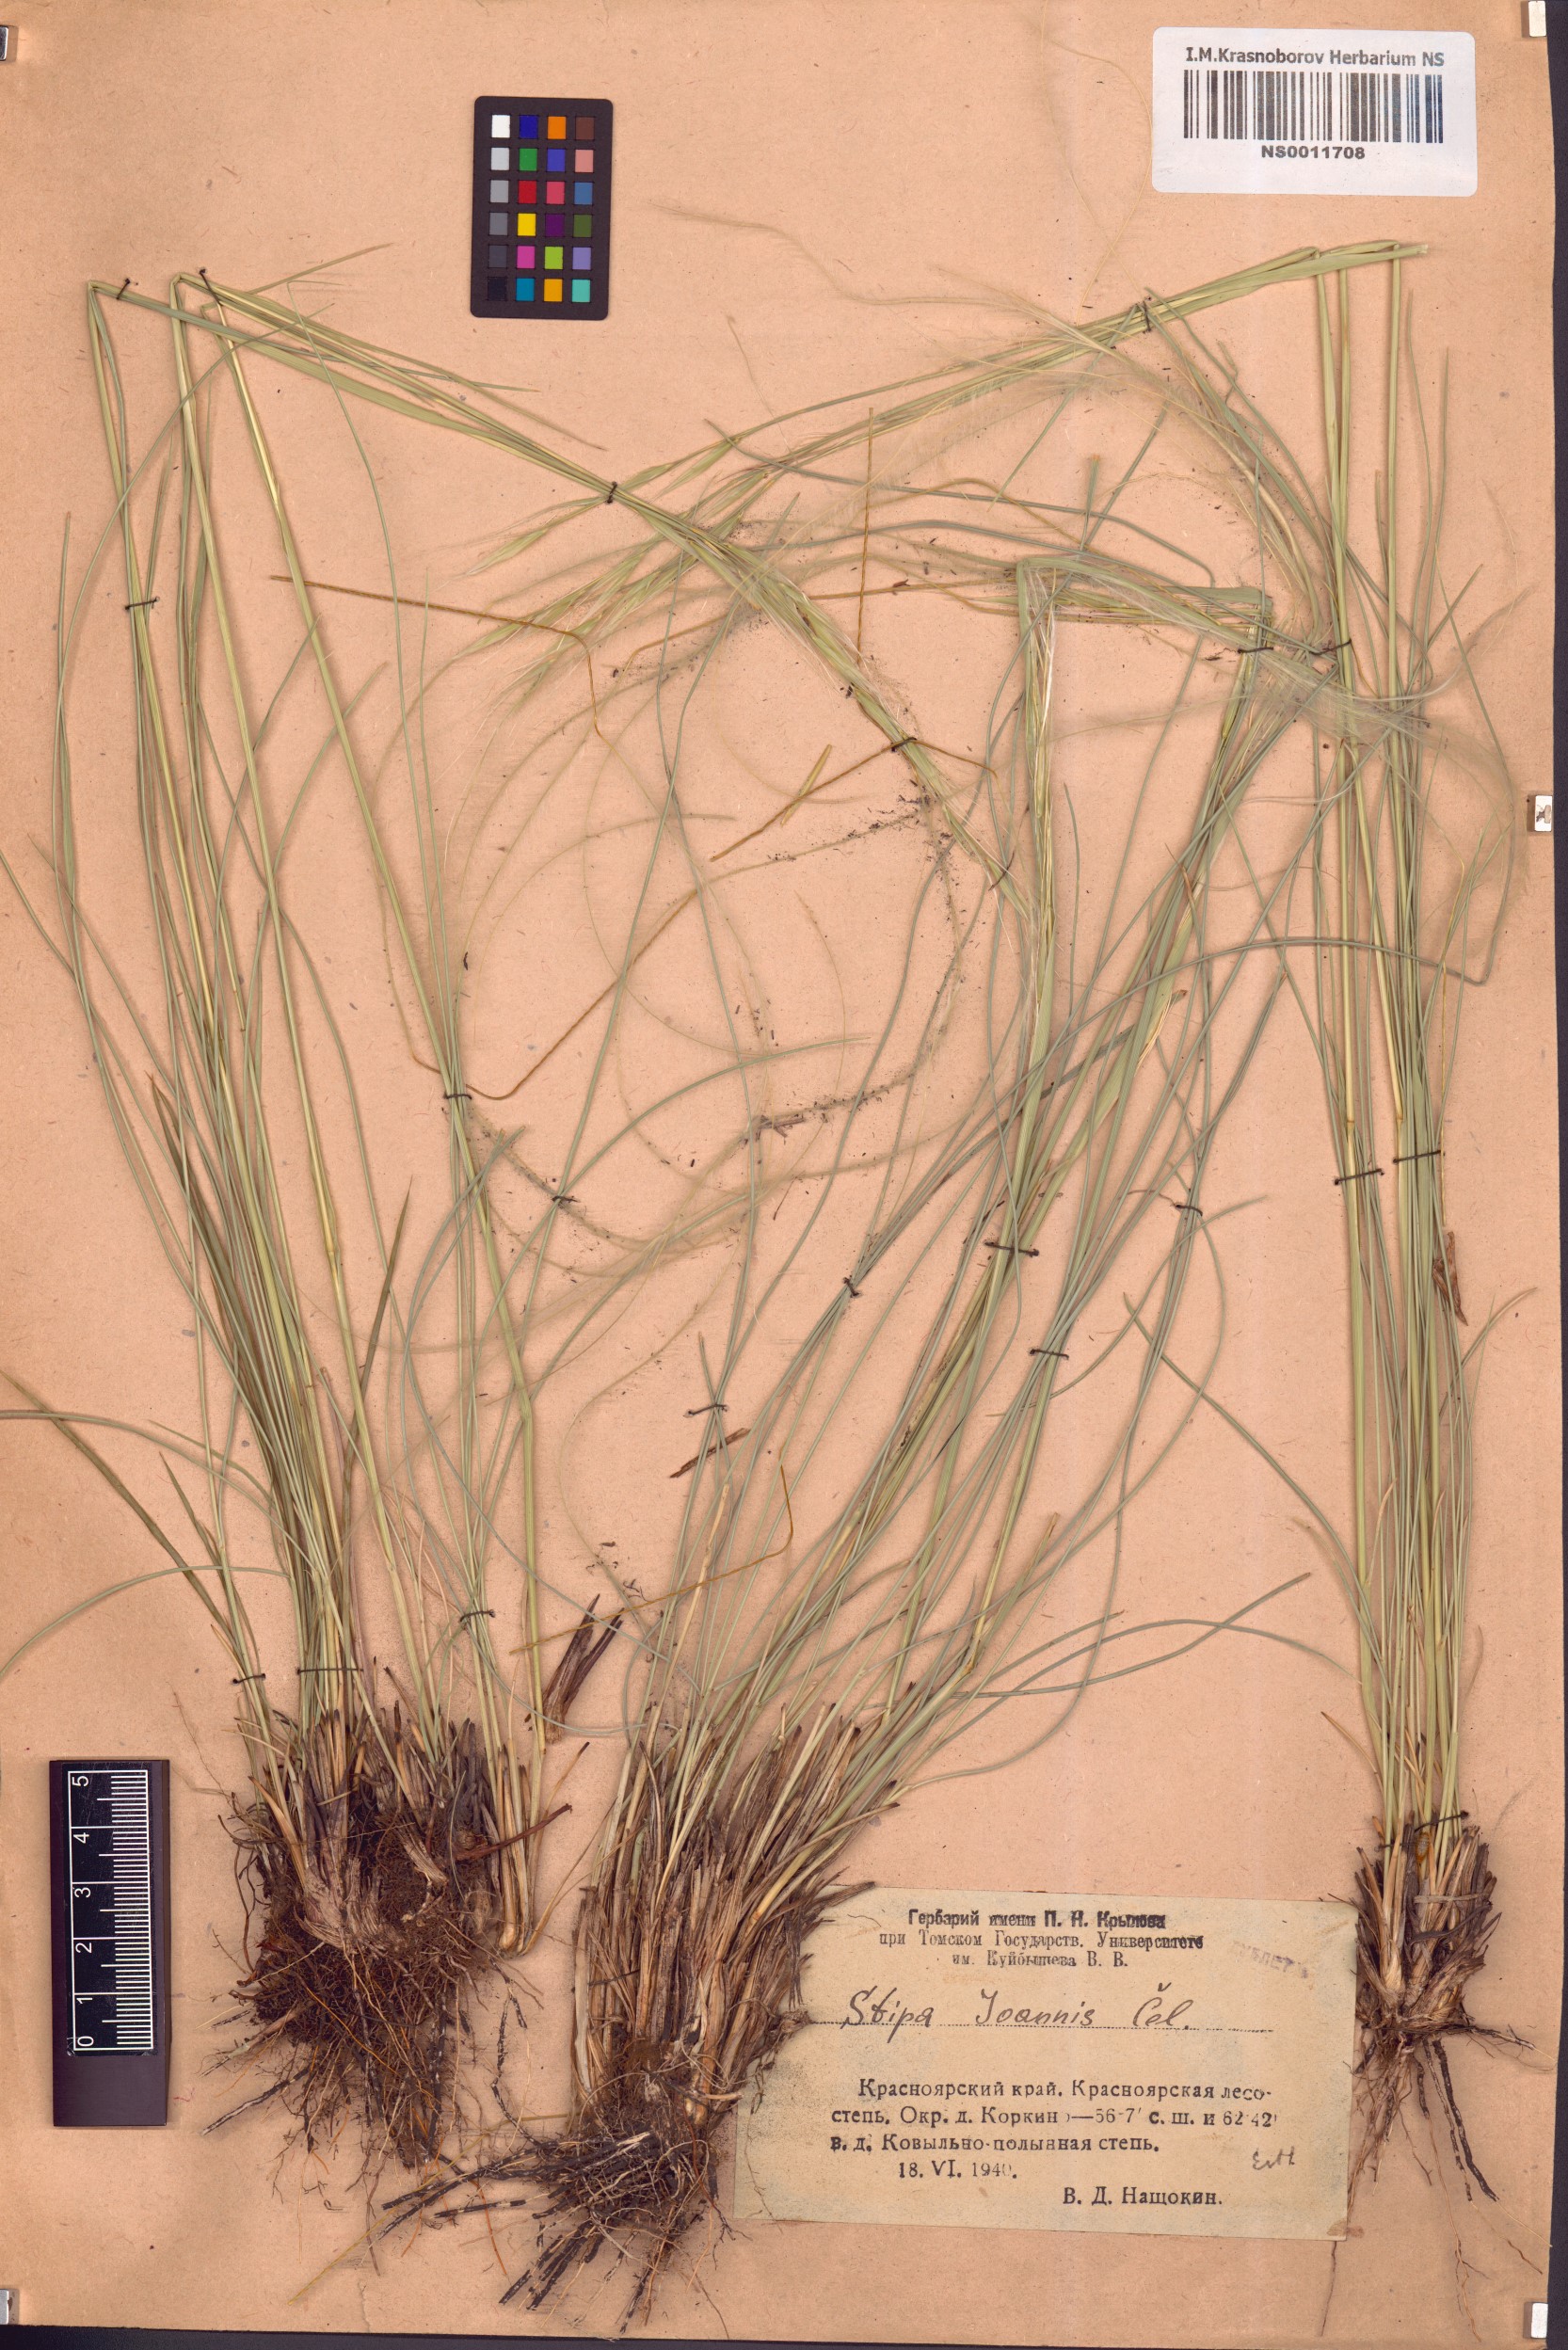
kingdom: Plantae
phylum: Tracheophyta
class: Liliopsida
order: Poales
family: Poaceae
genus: Stipa
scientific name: Stipa pennata
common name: European feather grass
